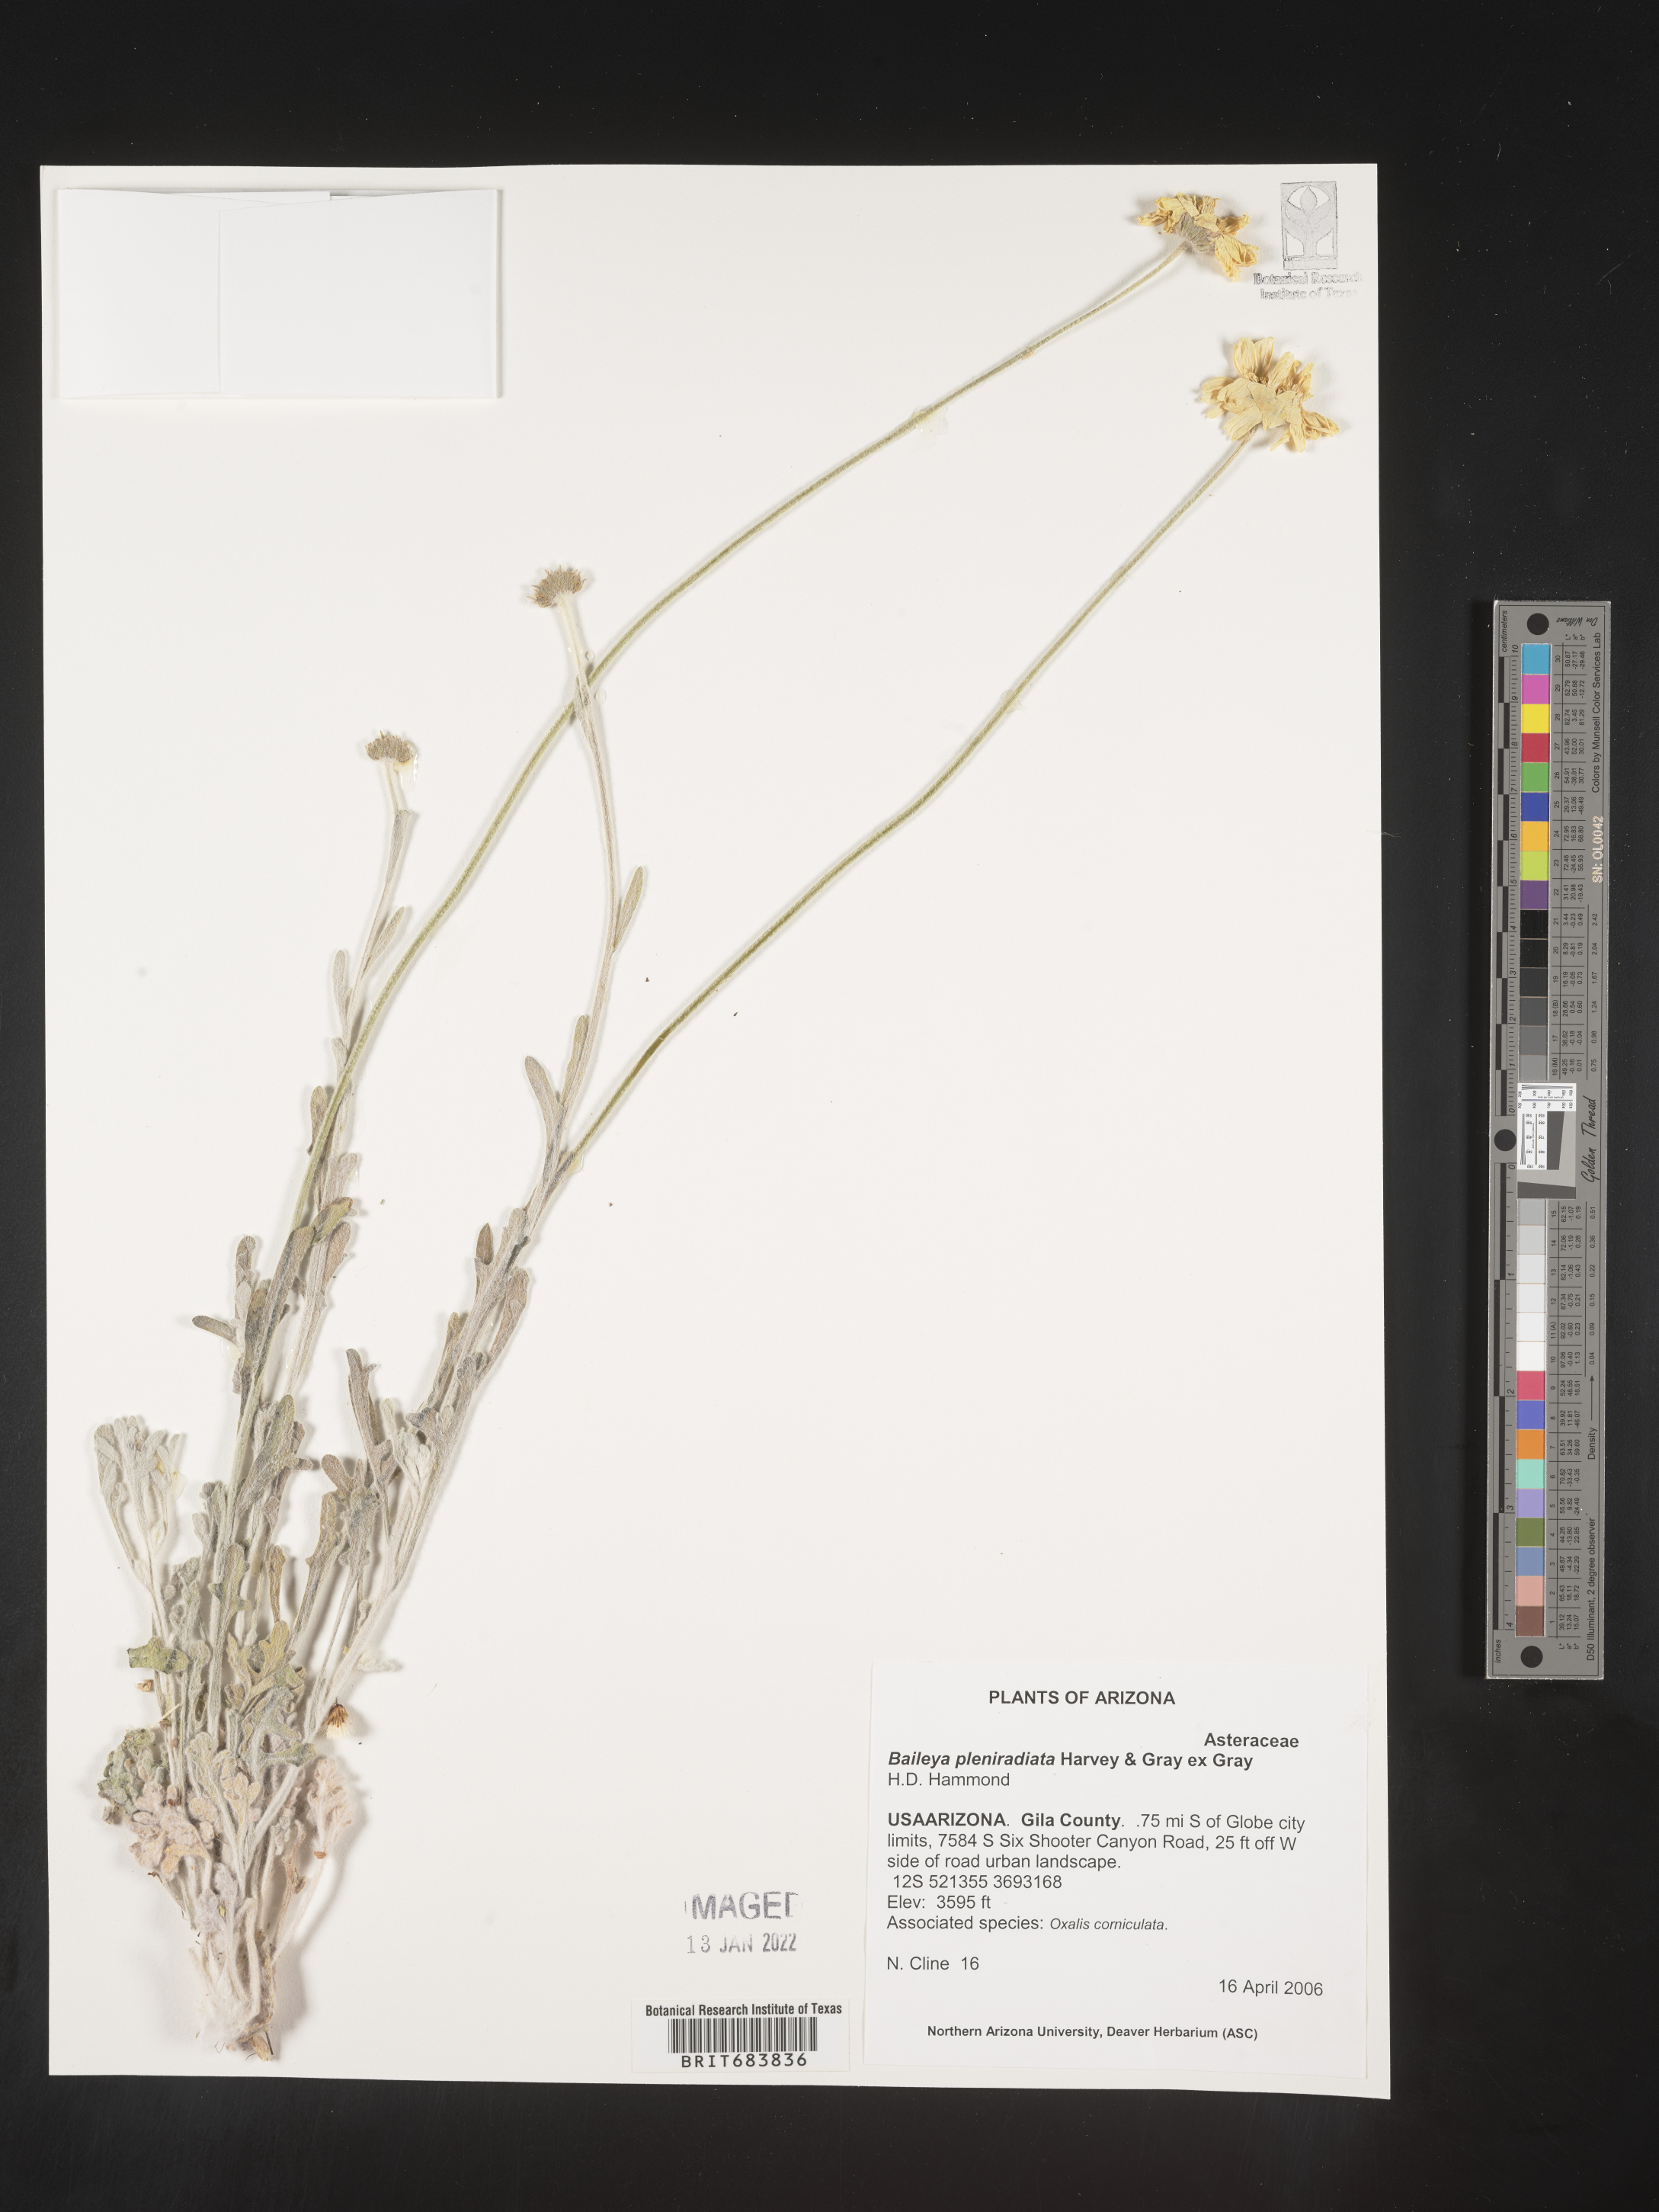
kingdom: Plantae
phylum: Tracheophyta
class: Magnoliopsida
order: Asterales
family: Asteraceae
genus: Baileya
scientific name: Baileya pleniradiata
